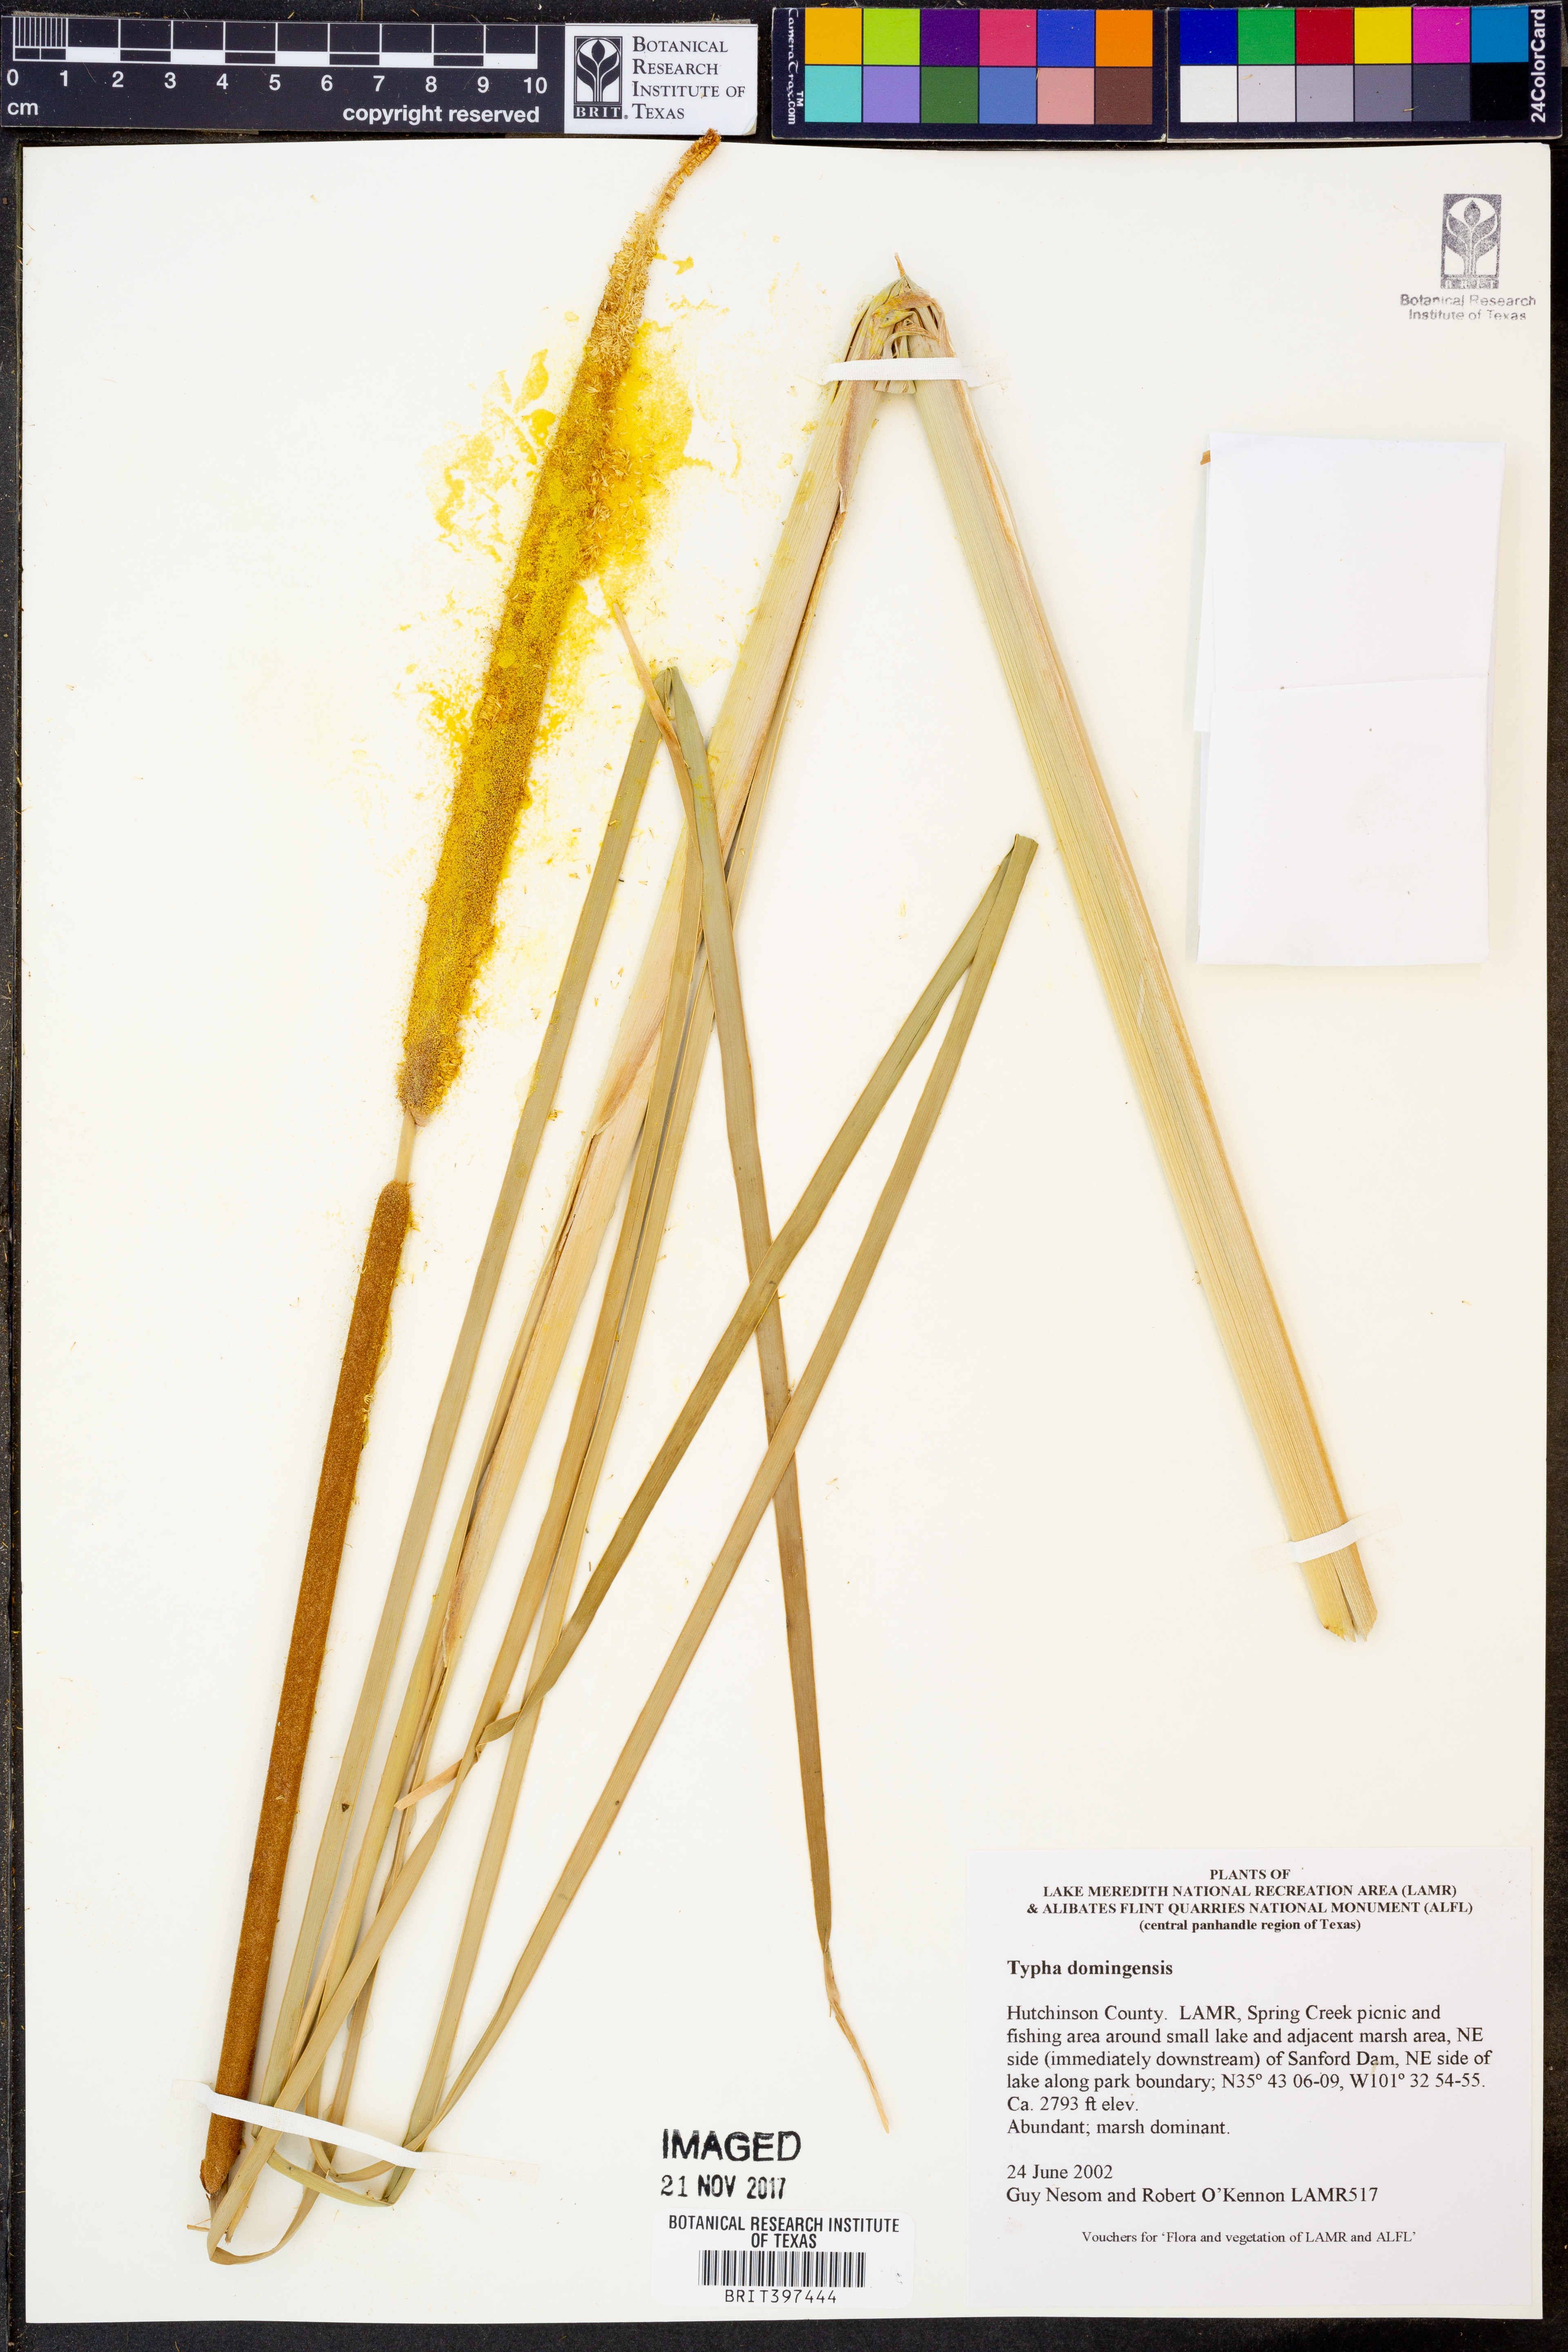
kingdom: Plantae
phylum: Tracheophyta
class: Liliopsida
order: Poales
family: Typhaceae
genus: Typha
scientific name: Typha domingensis
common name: Southern cattail
